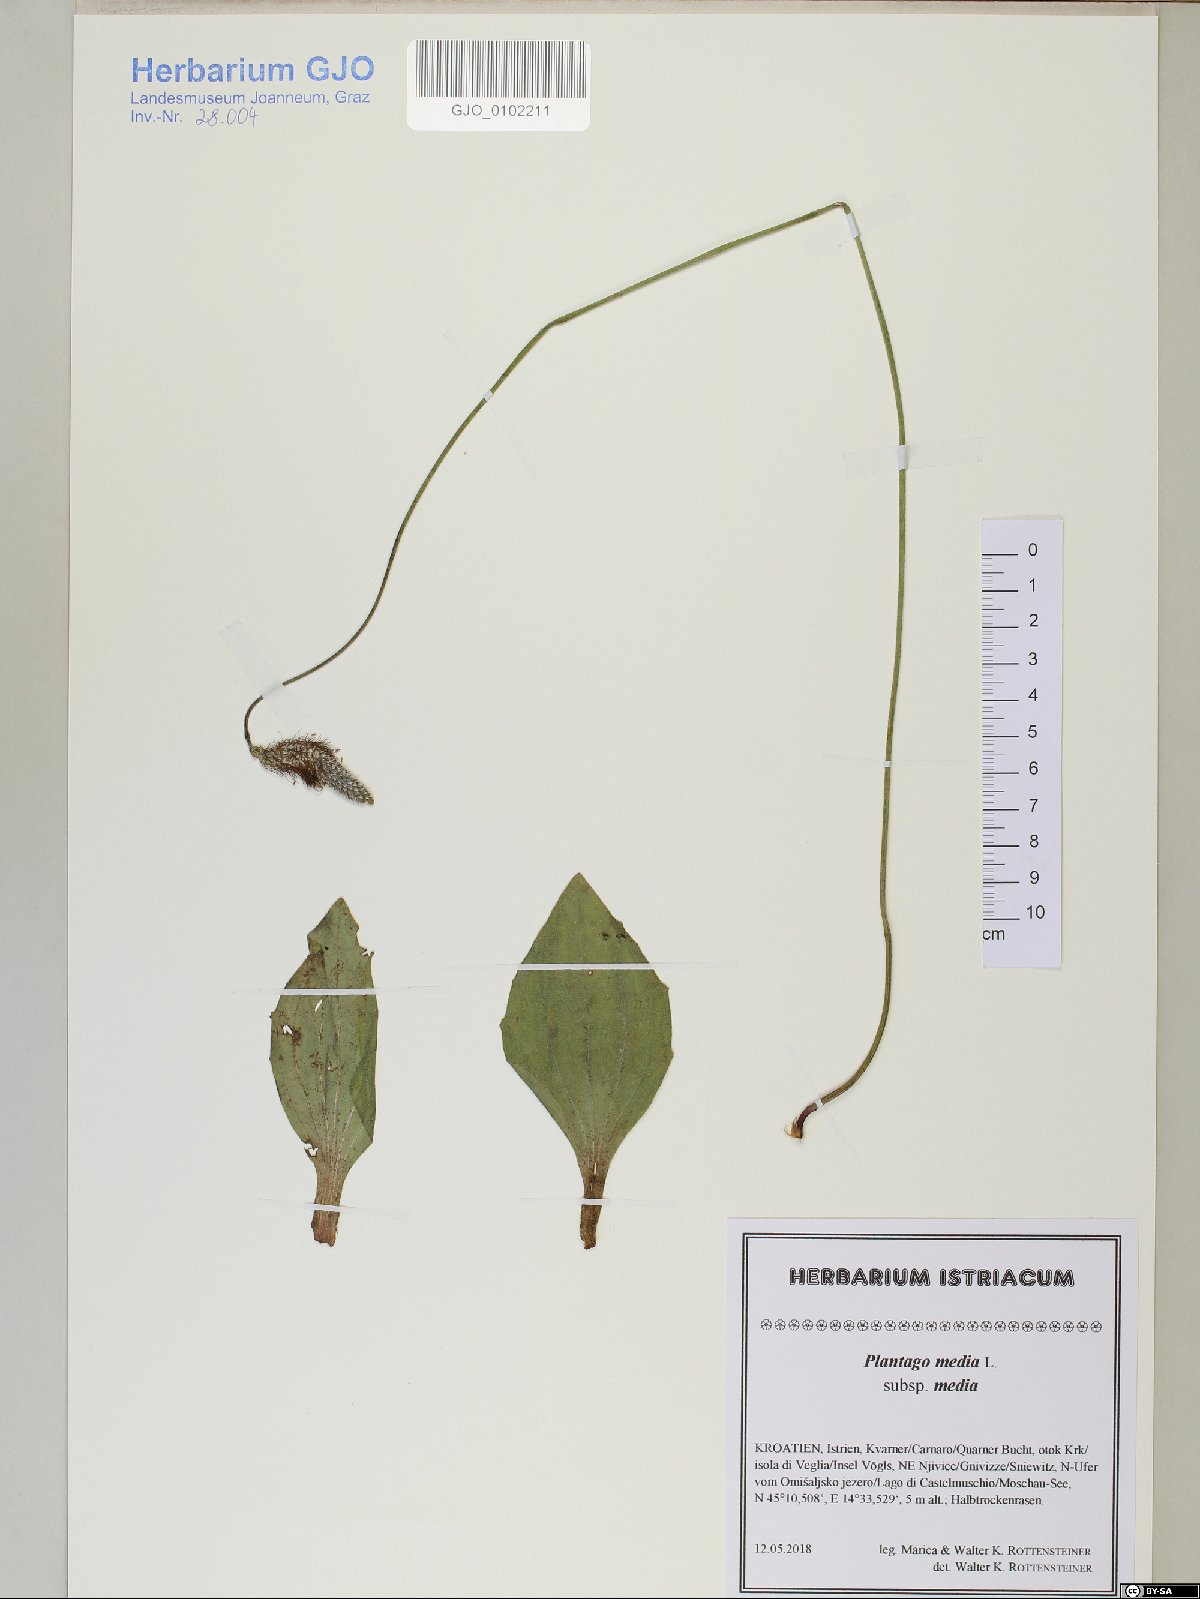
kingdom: Plantae
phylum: Tracheophyta
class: Magnoliopsida
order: Lamiales
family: Plantaginaceae
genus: Plantago
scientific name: Plantago media
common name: Hoary plantain
